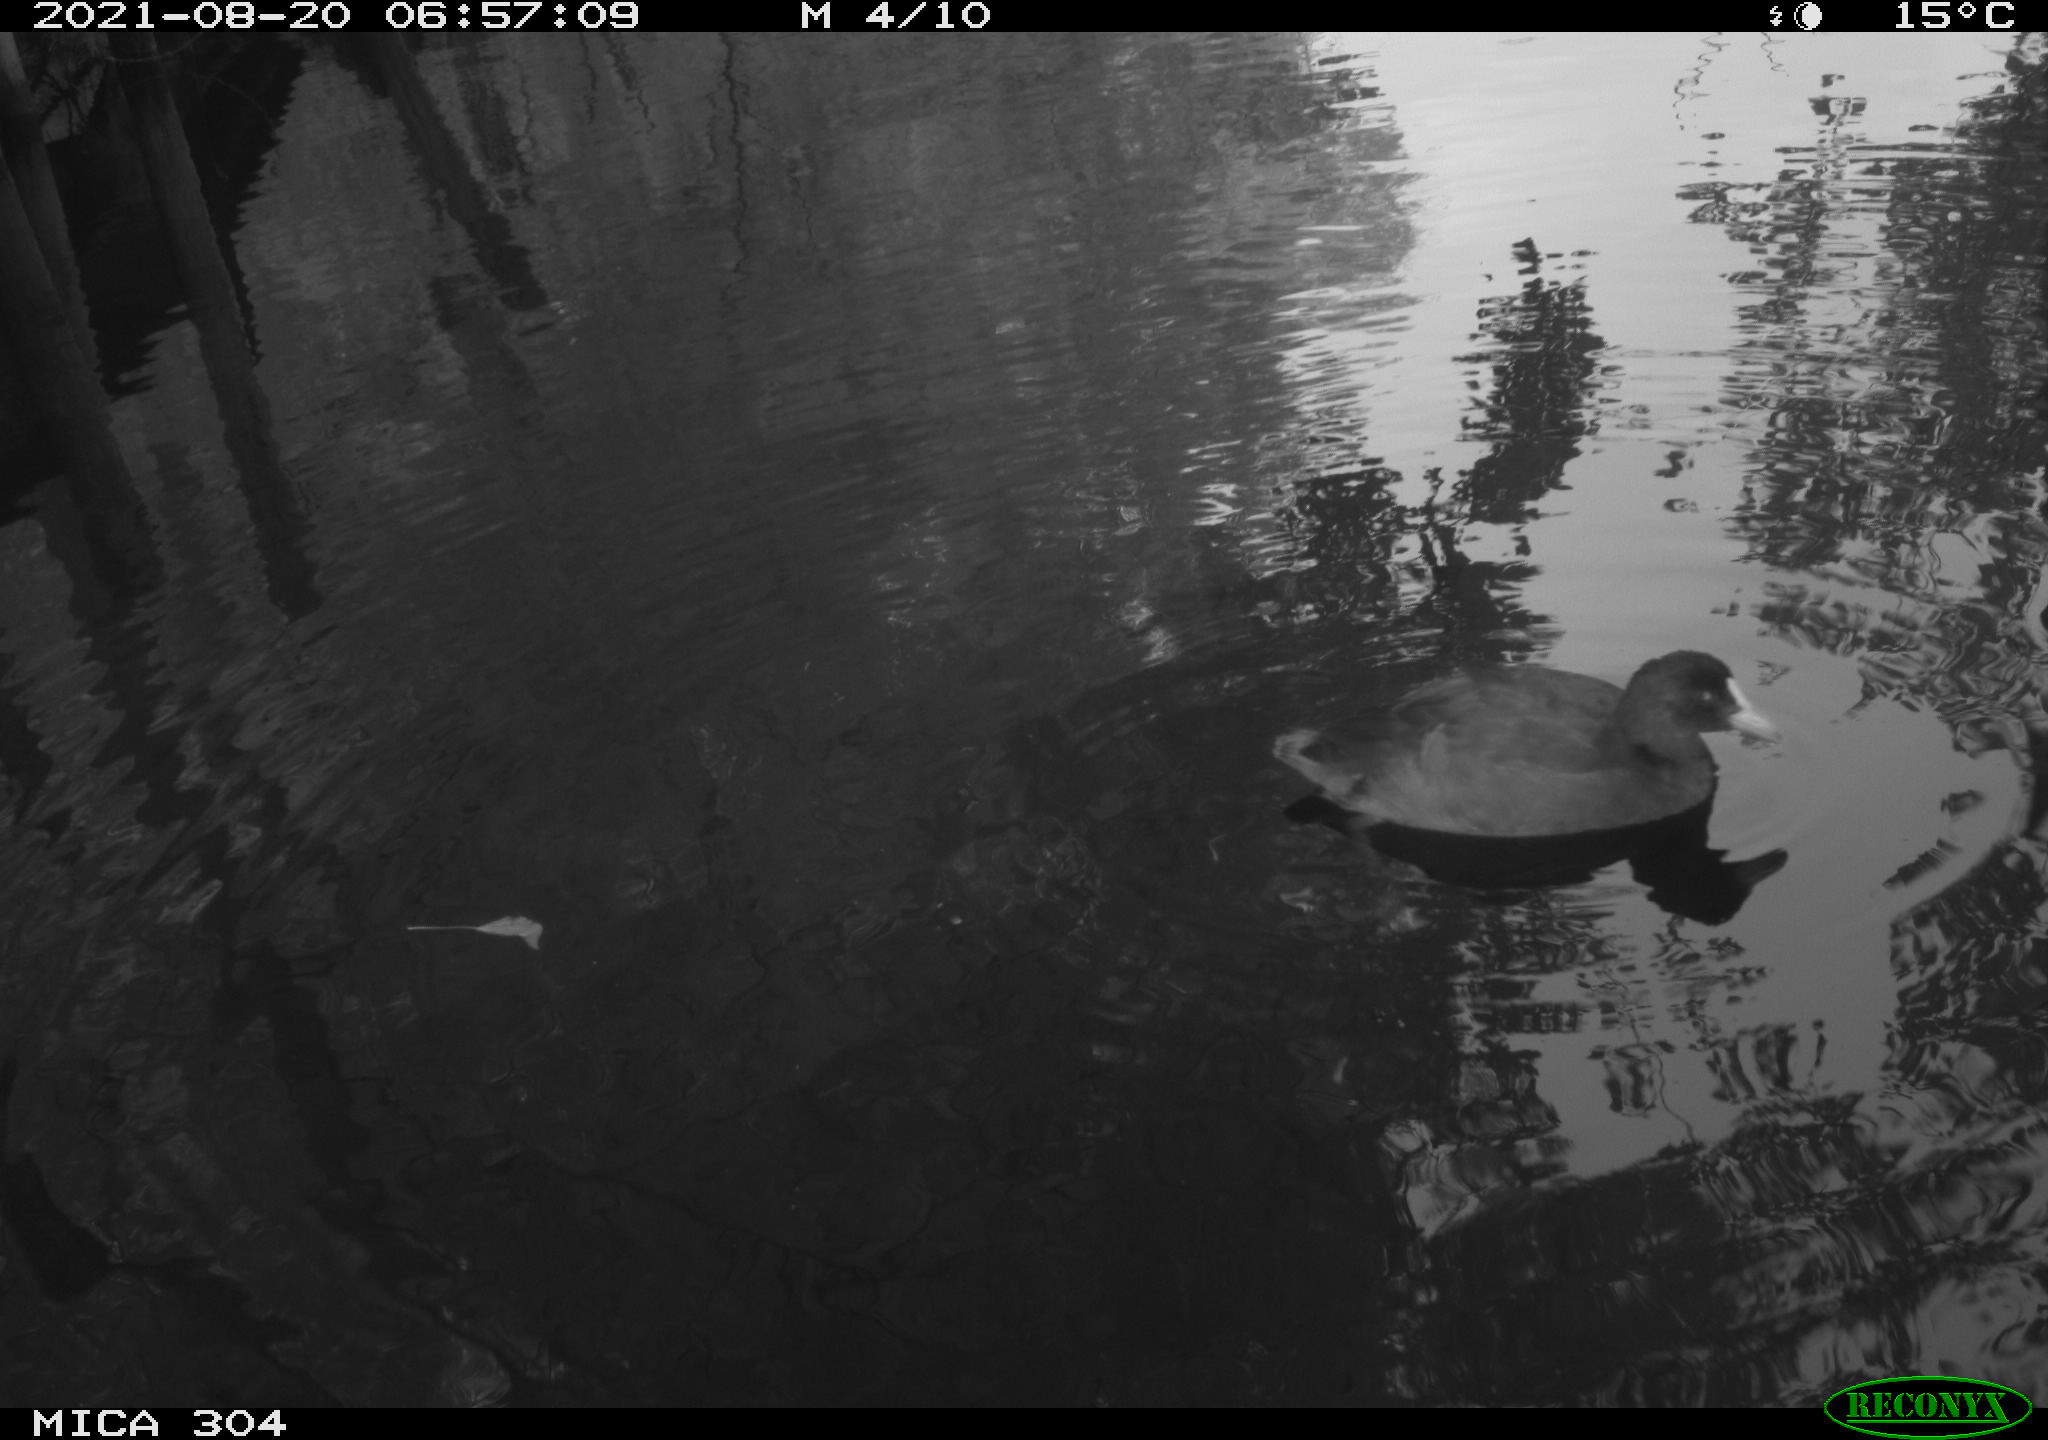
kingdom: Animalia
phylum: Chordata
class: Aves
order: Gruiformes
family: Rallidae
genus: Fulica
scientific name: Fulica atra
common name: Eurasian coot
